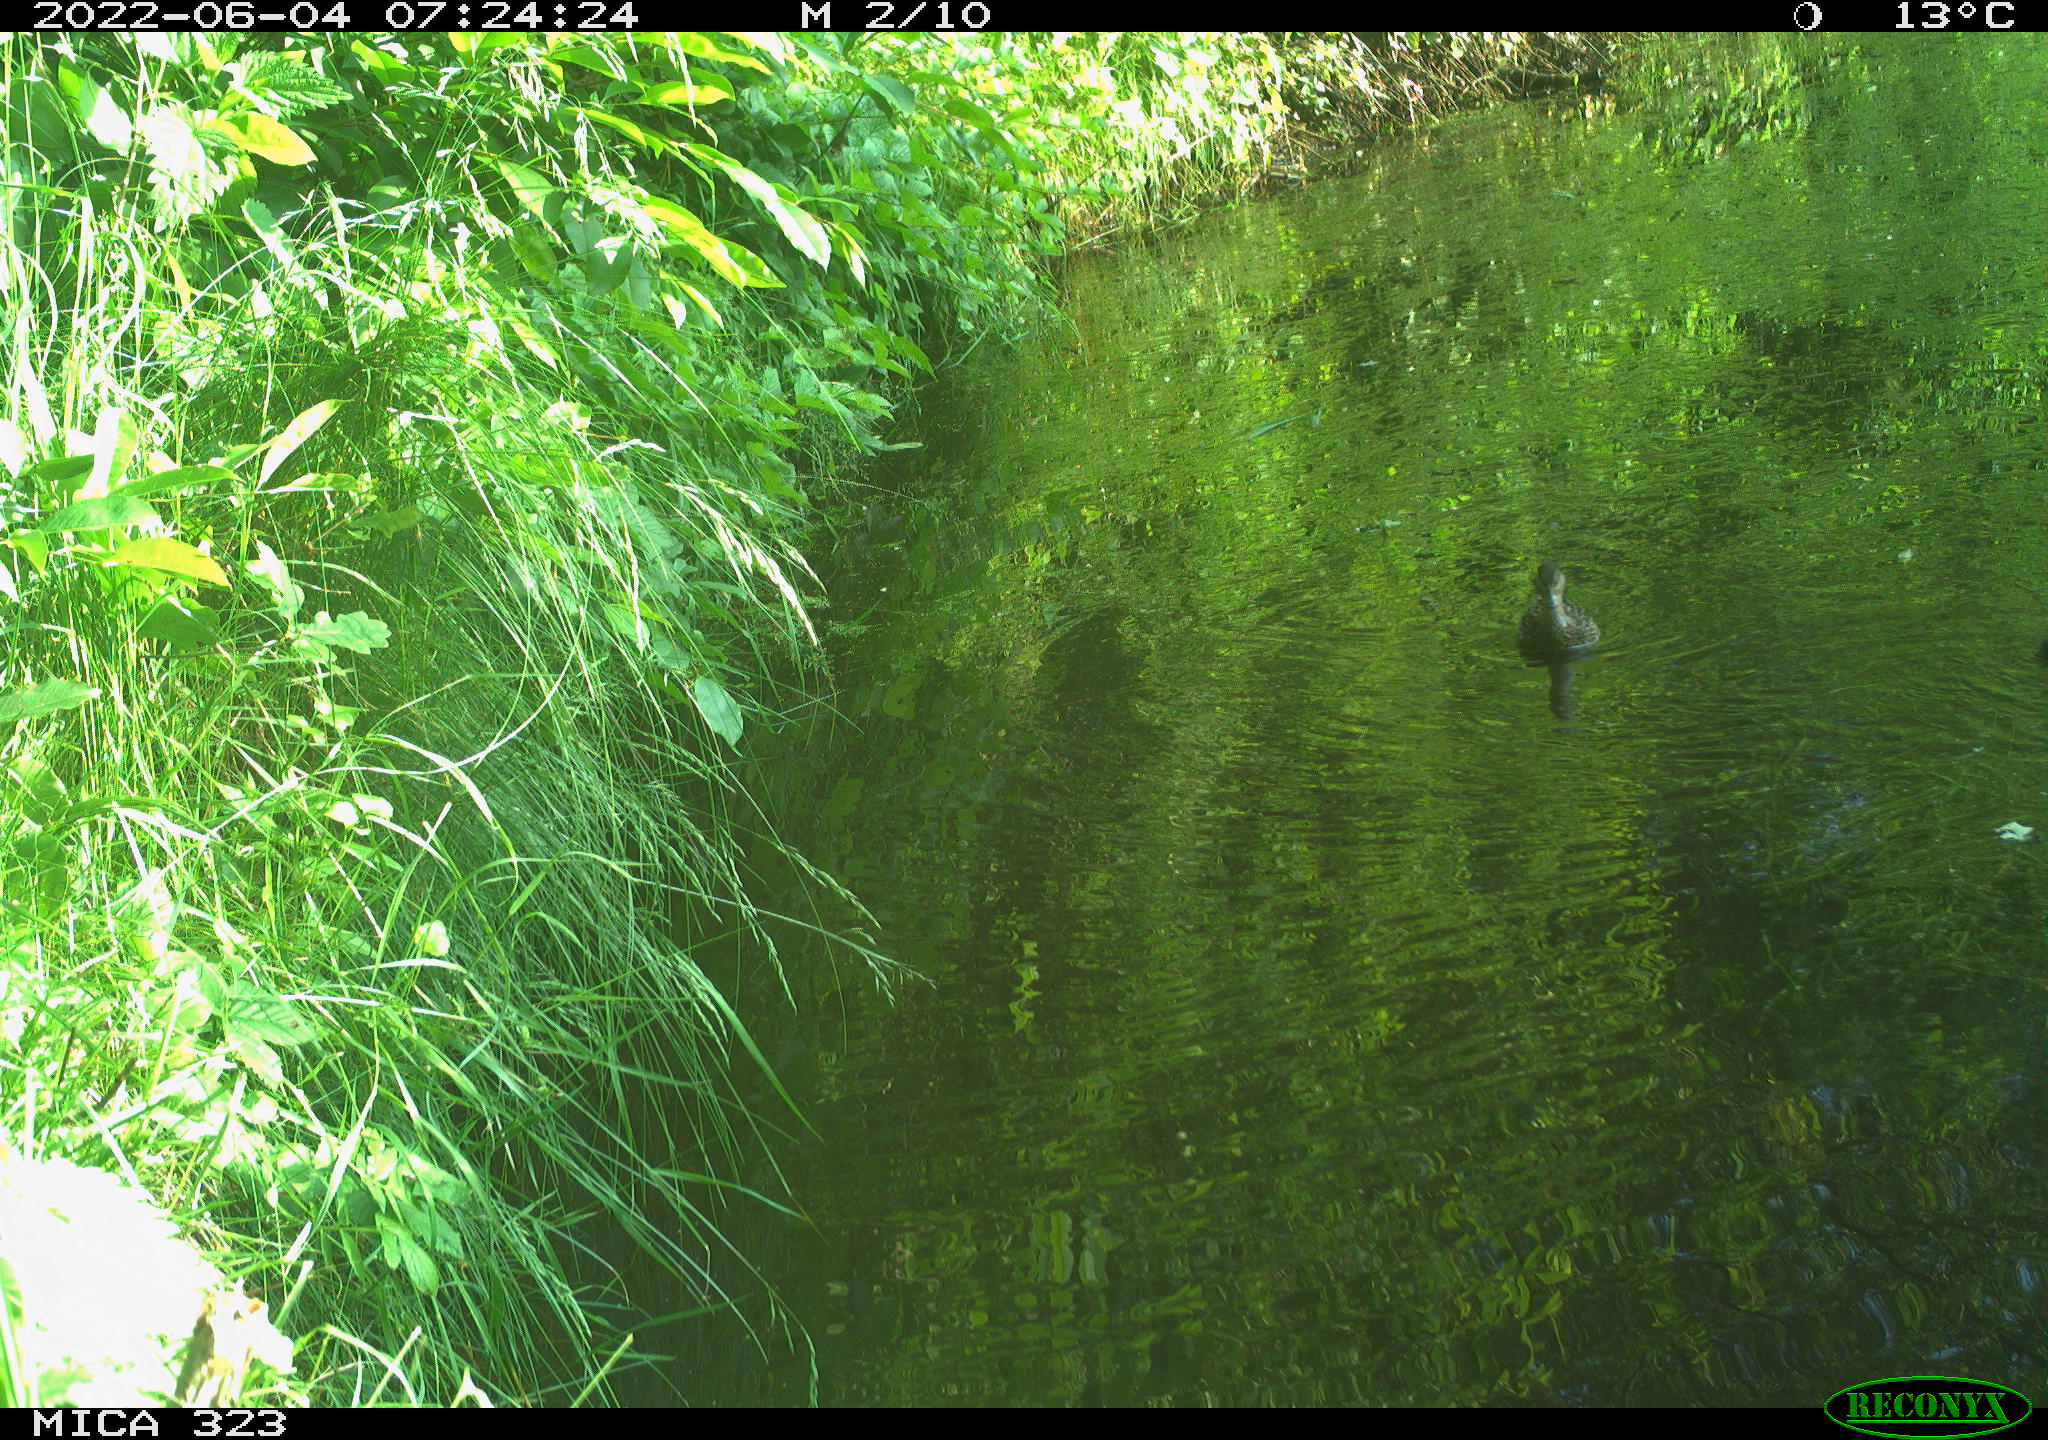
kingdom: Animalia
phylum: Chordata
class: Aves
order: Anseriformes
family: Anatidae
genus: Anas
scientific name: Anas platyrhynchos
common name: Mallard
